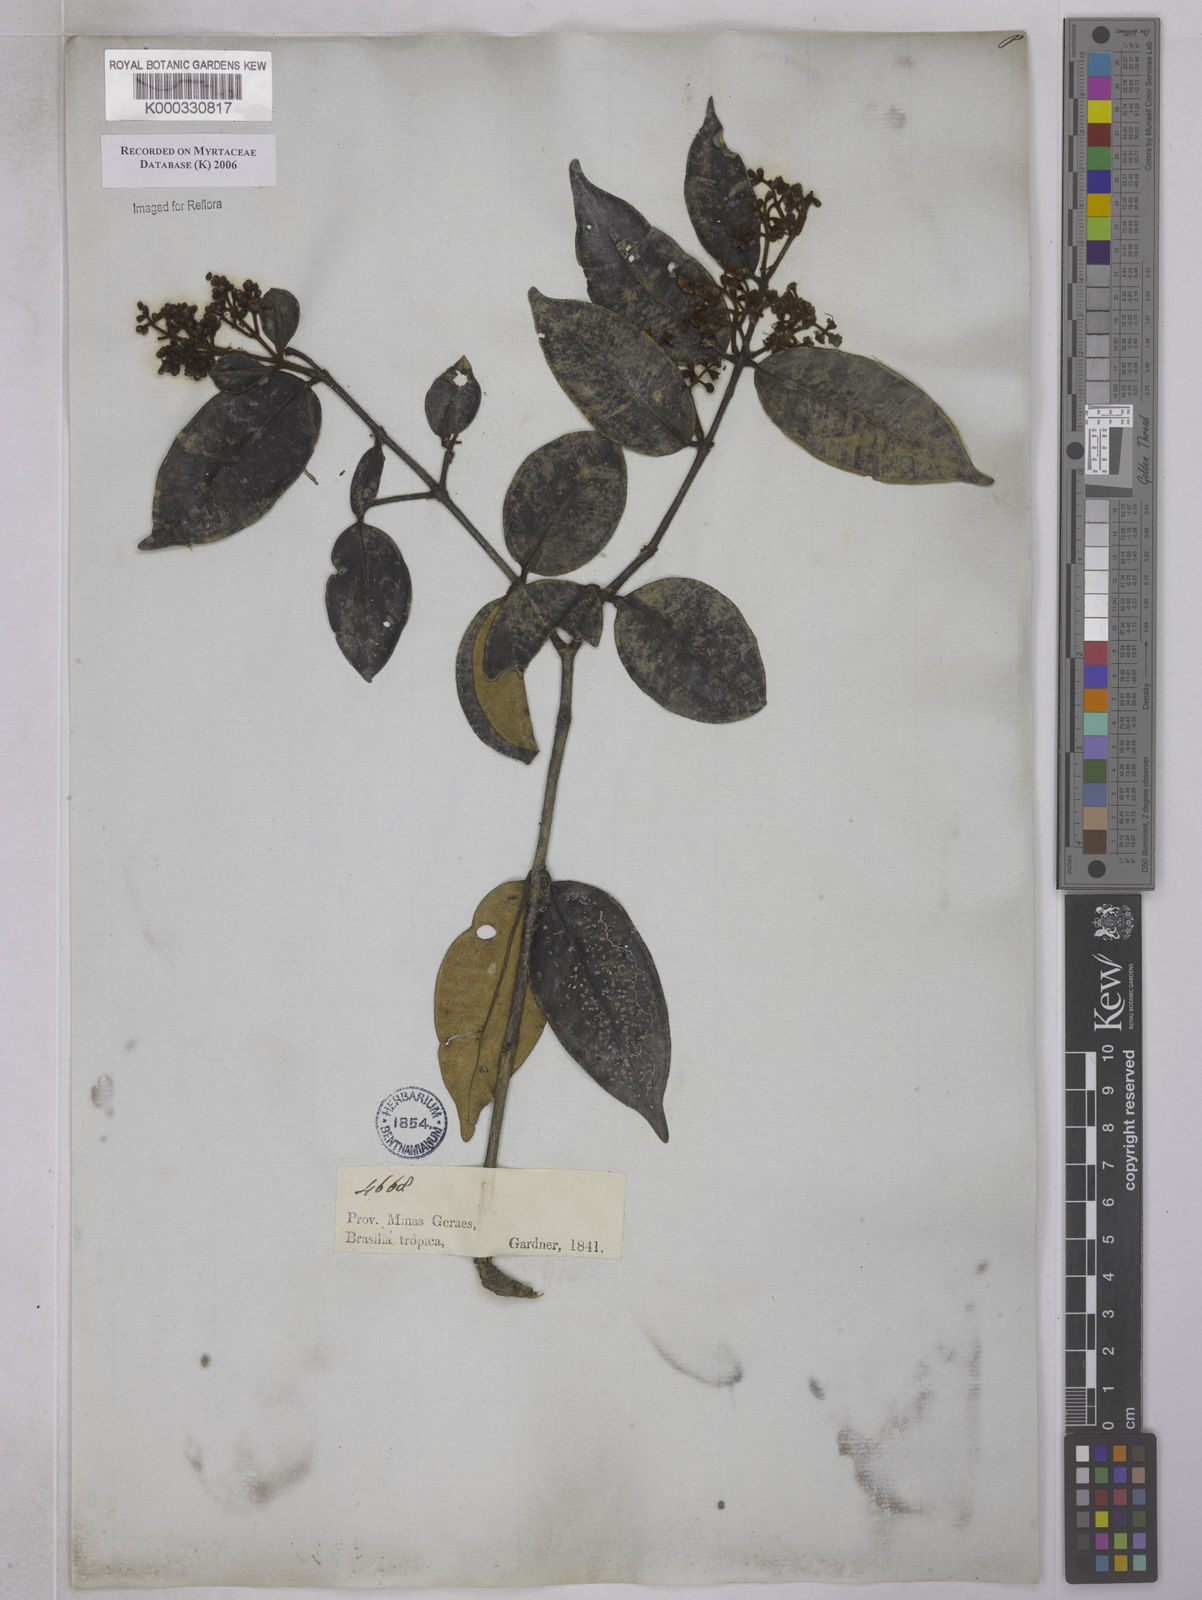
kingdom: Plantae
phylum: Tracheophyta
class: Magnoliopsida
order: Myrtales
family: Myrtaceae
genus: Marlierea
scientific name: Marlierea clausseniana
